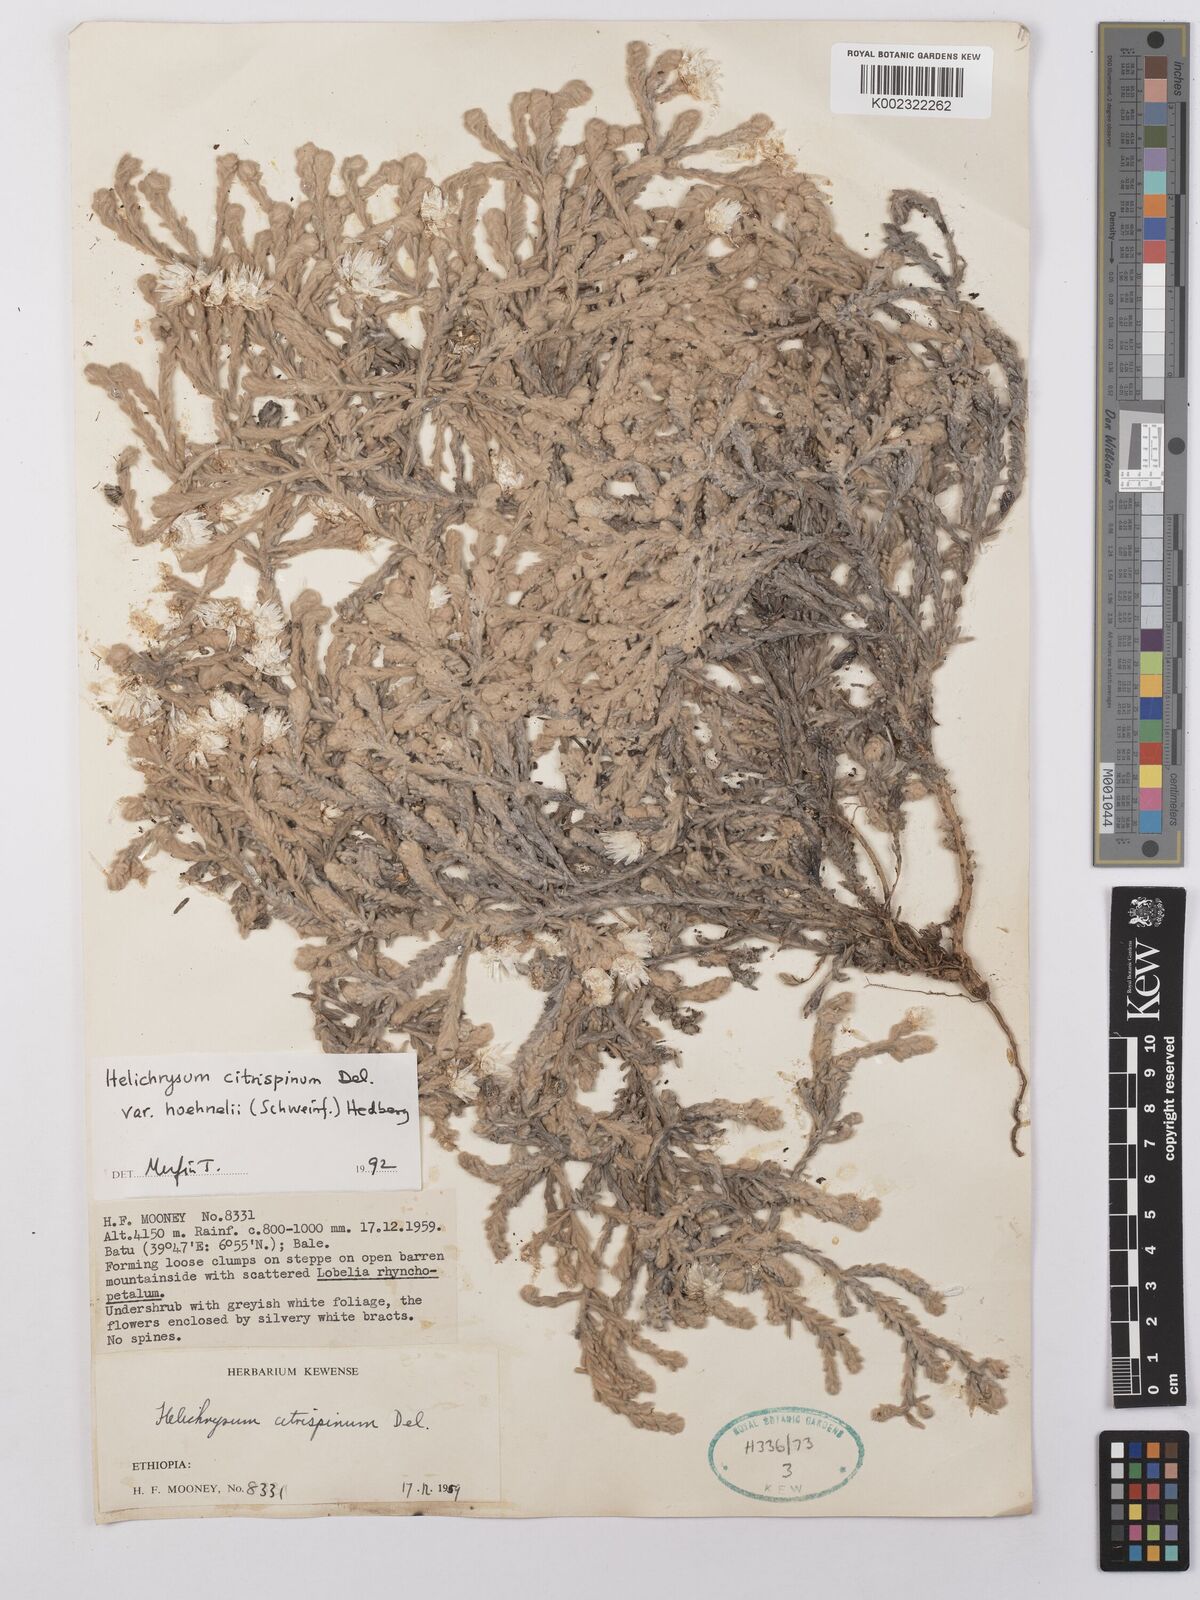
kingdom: Plantae
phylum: Tracheophyta
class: Magnoliopsida
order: Asterales
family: Asteraceae
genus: Helichrysum
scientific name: Helichrysum citrispinum
